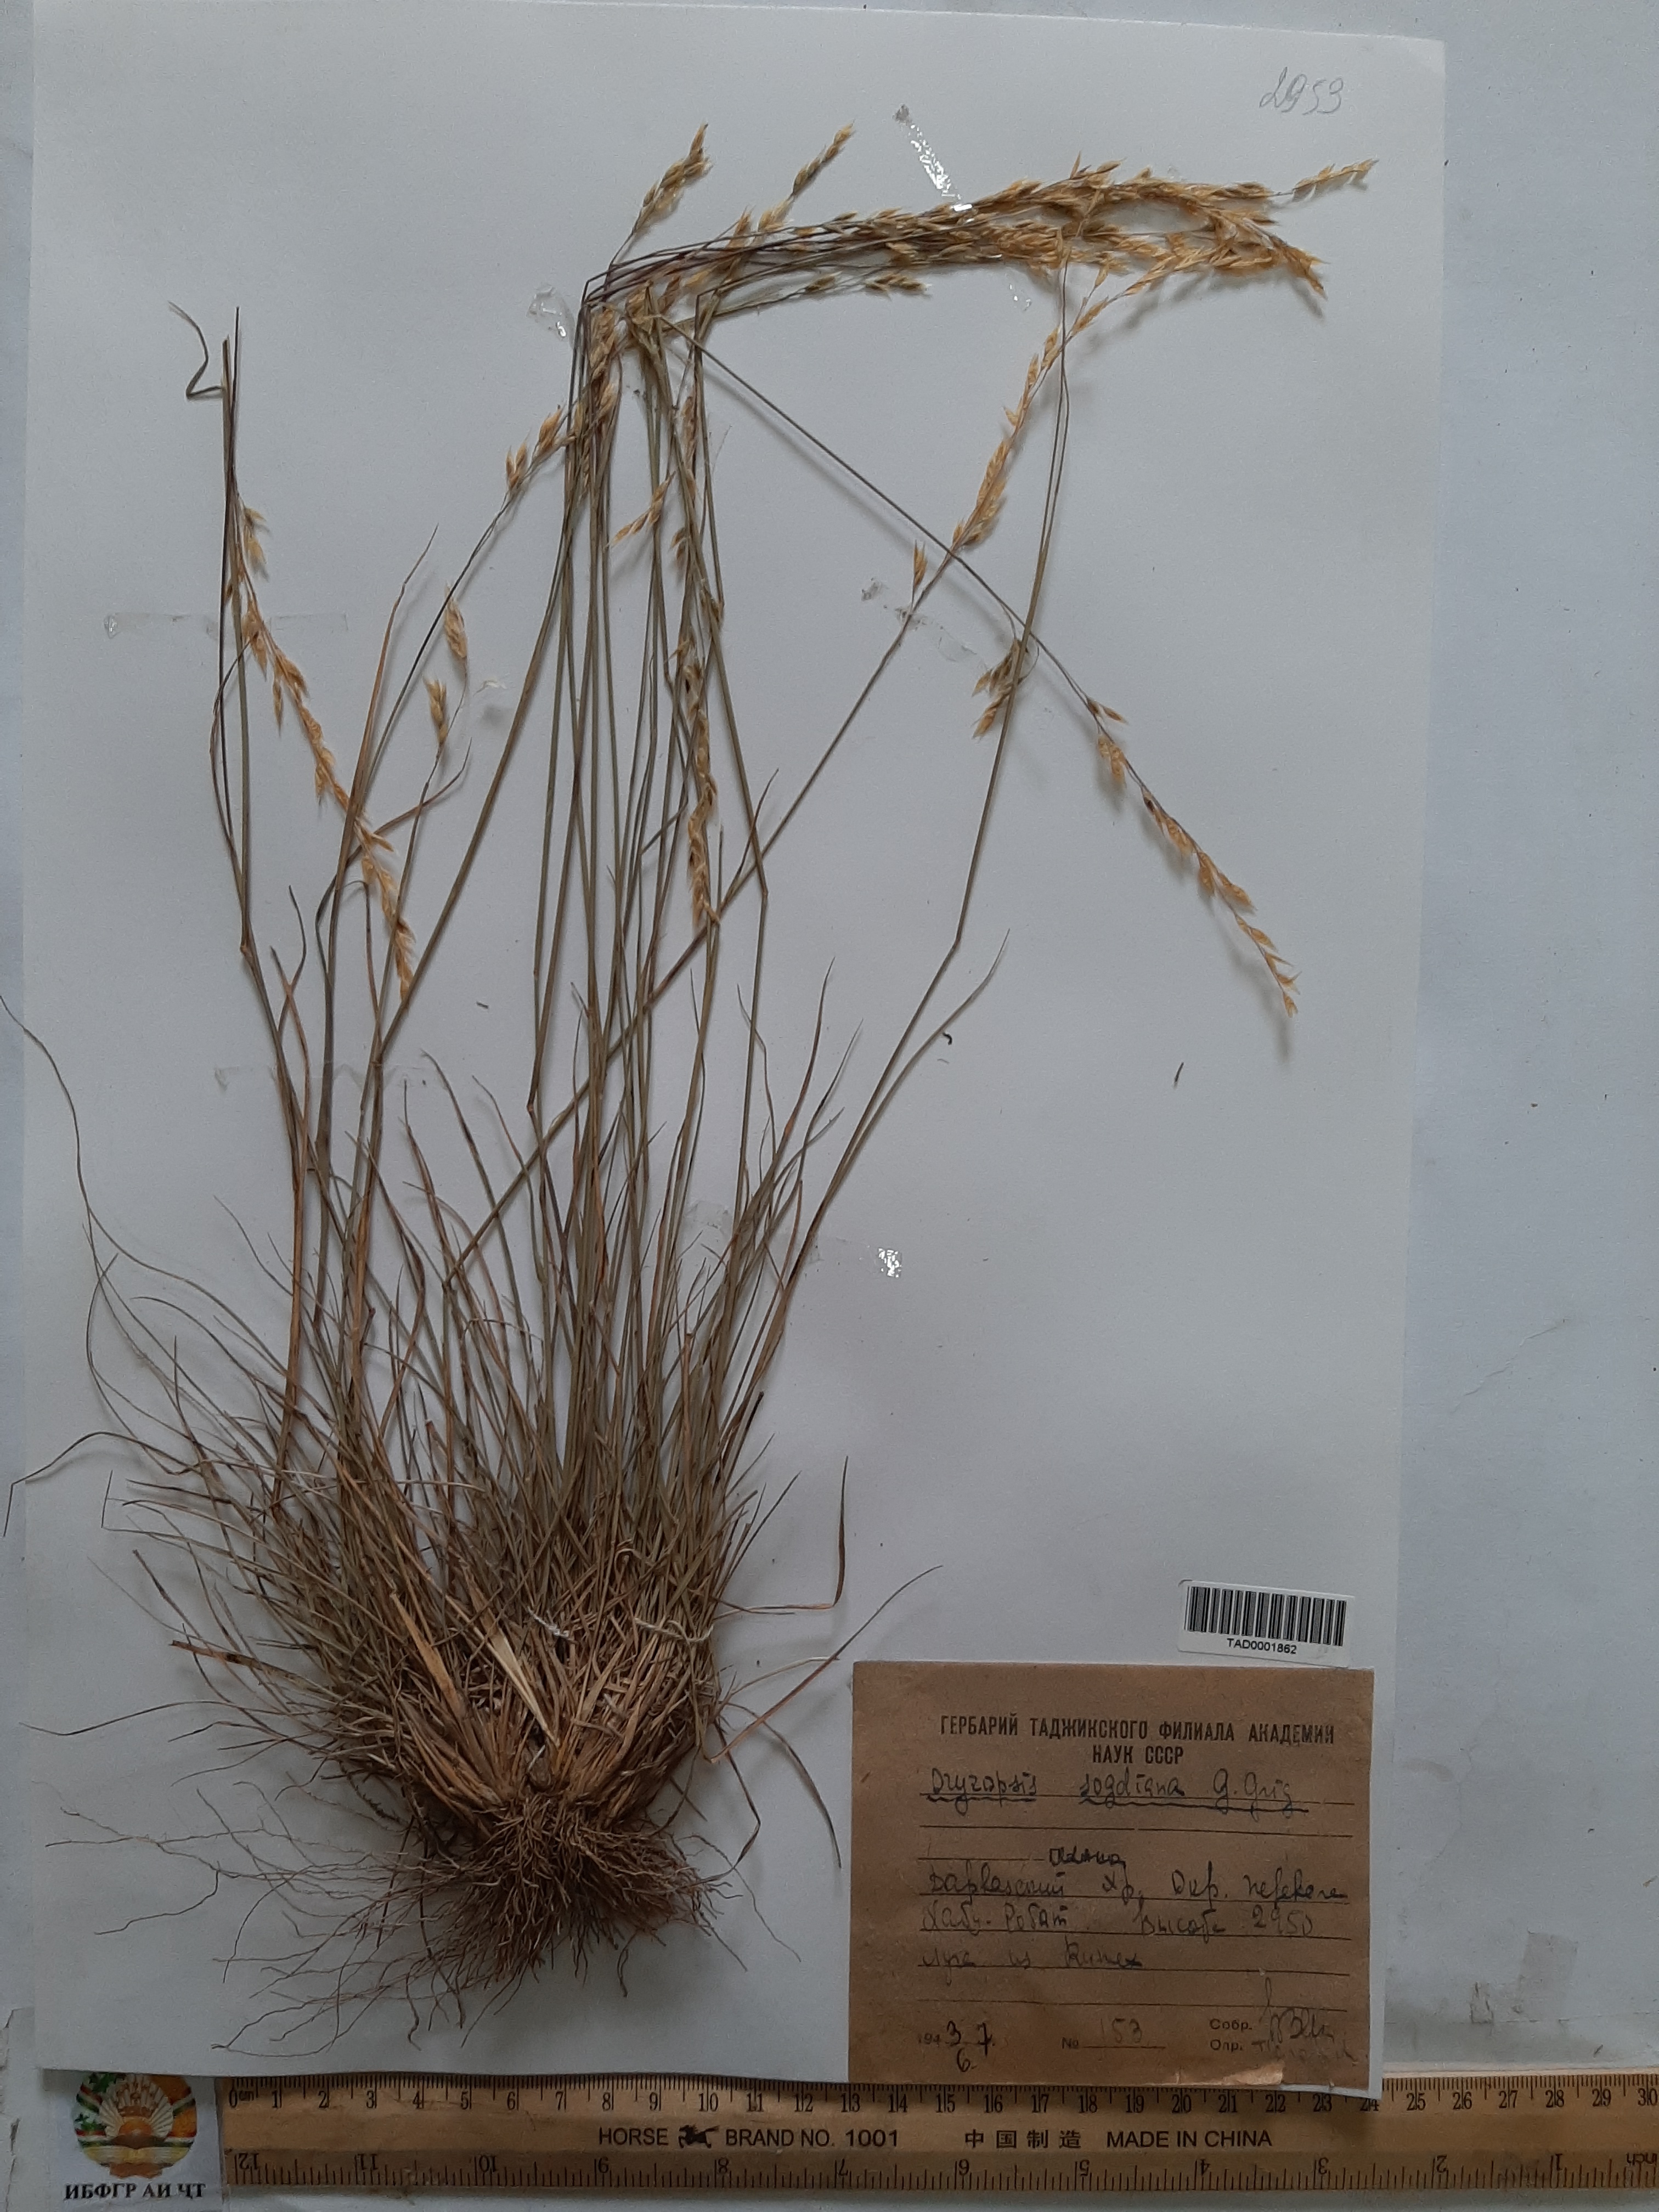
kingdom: Plantae
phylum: Tracheophyta
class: Liliopsida
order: Poales
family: Poaceae
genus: Piptatherum
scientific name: Piptatherum sogdianum
